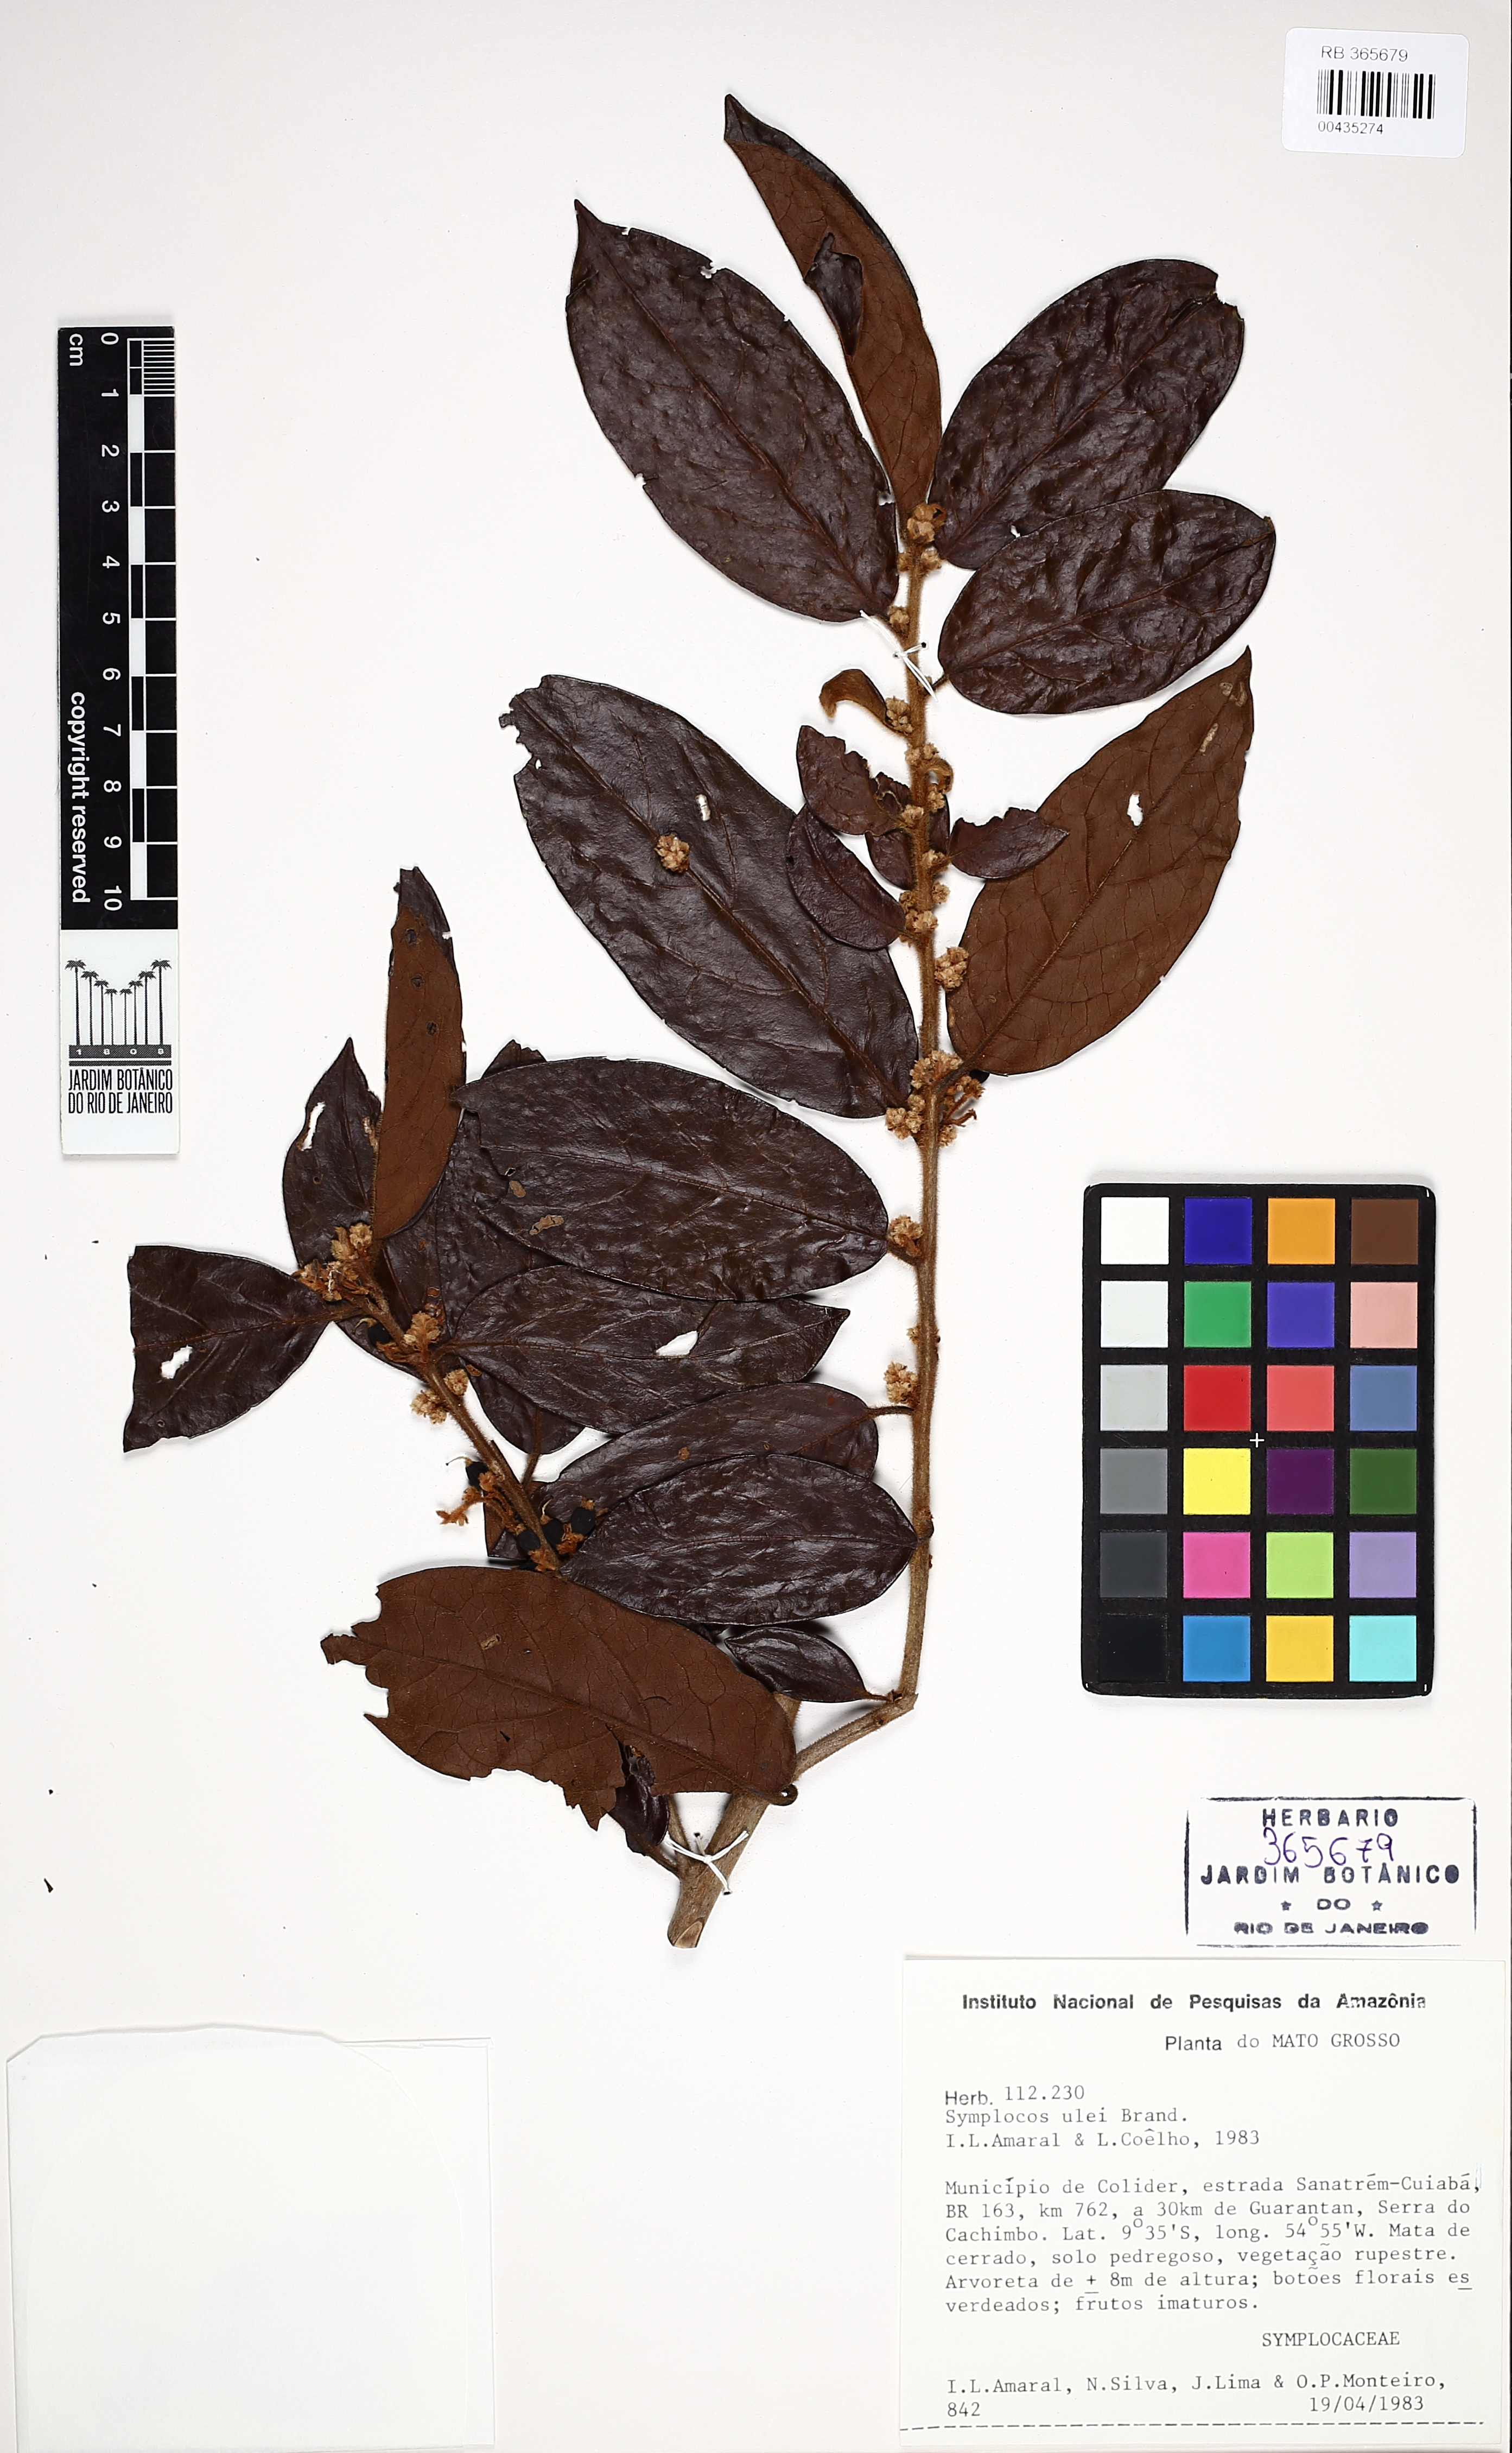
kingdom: Plantae
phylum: Tracheophyta
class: Magnoliopsida
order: Ericales
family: Symplocaceae
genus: Symplocos
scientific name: Symplocos ulei
